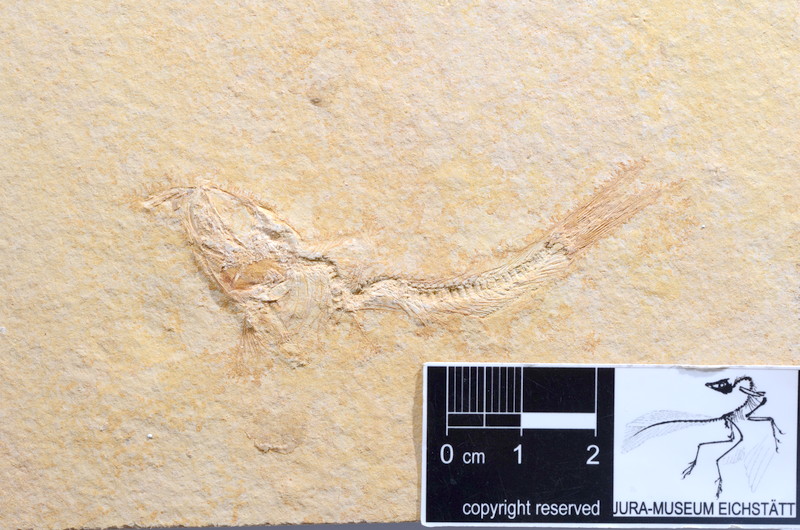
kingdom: Animalia
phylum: Chordata
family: Ascalaboidae
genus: Tharsis
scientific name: Tharsis dubius
